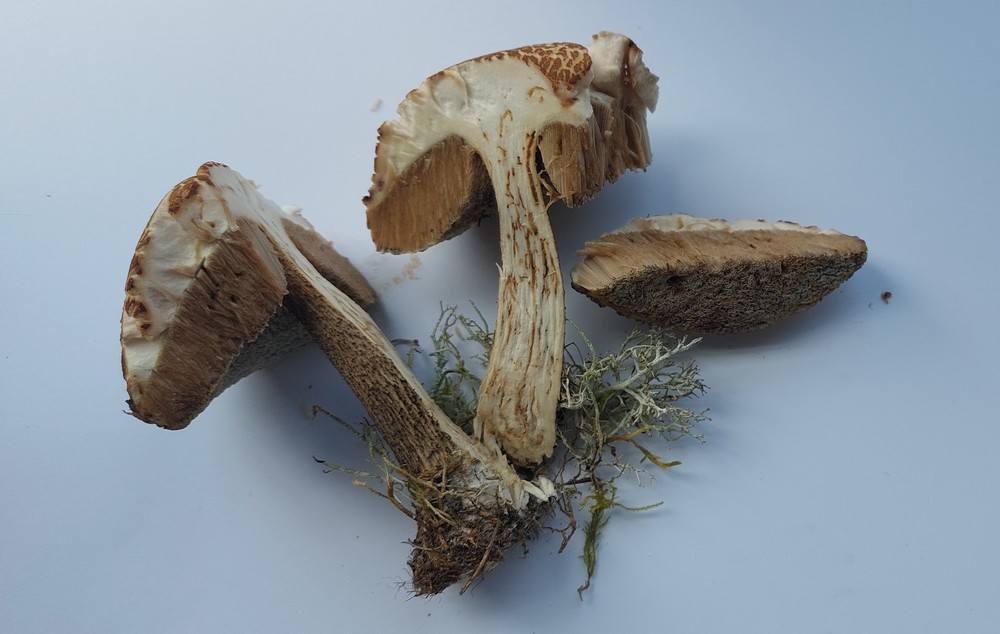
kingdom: Fungi
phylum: Basidiomycota
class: Agaricomycetes
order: Boletales
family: Boletaceae
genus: Leccinum
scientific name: Leccinum scabrum
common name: brun skælrørhat
